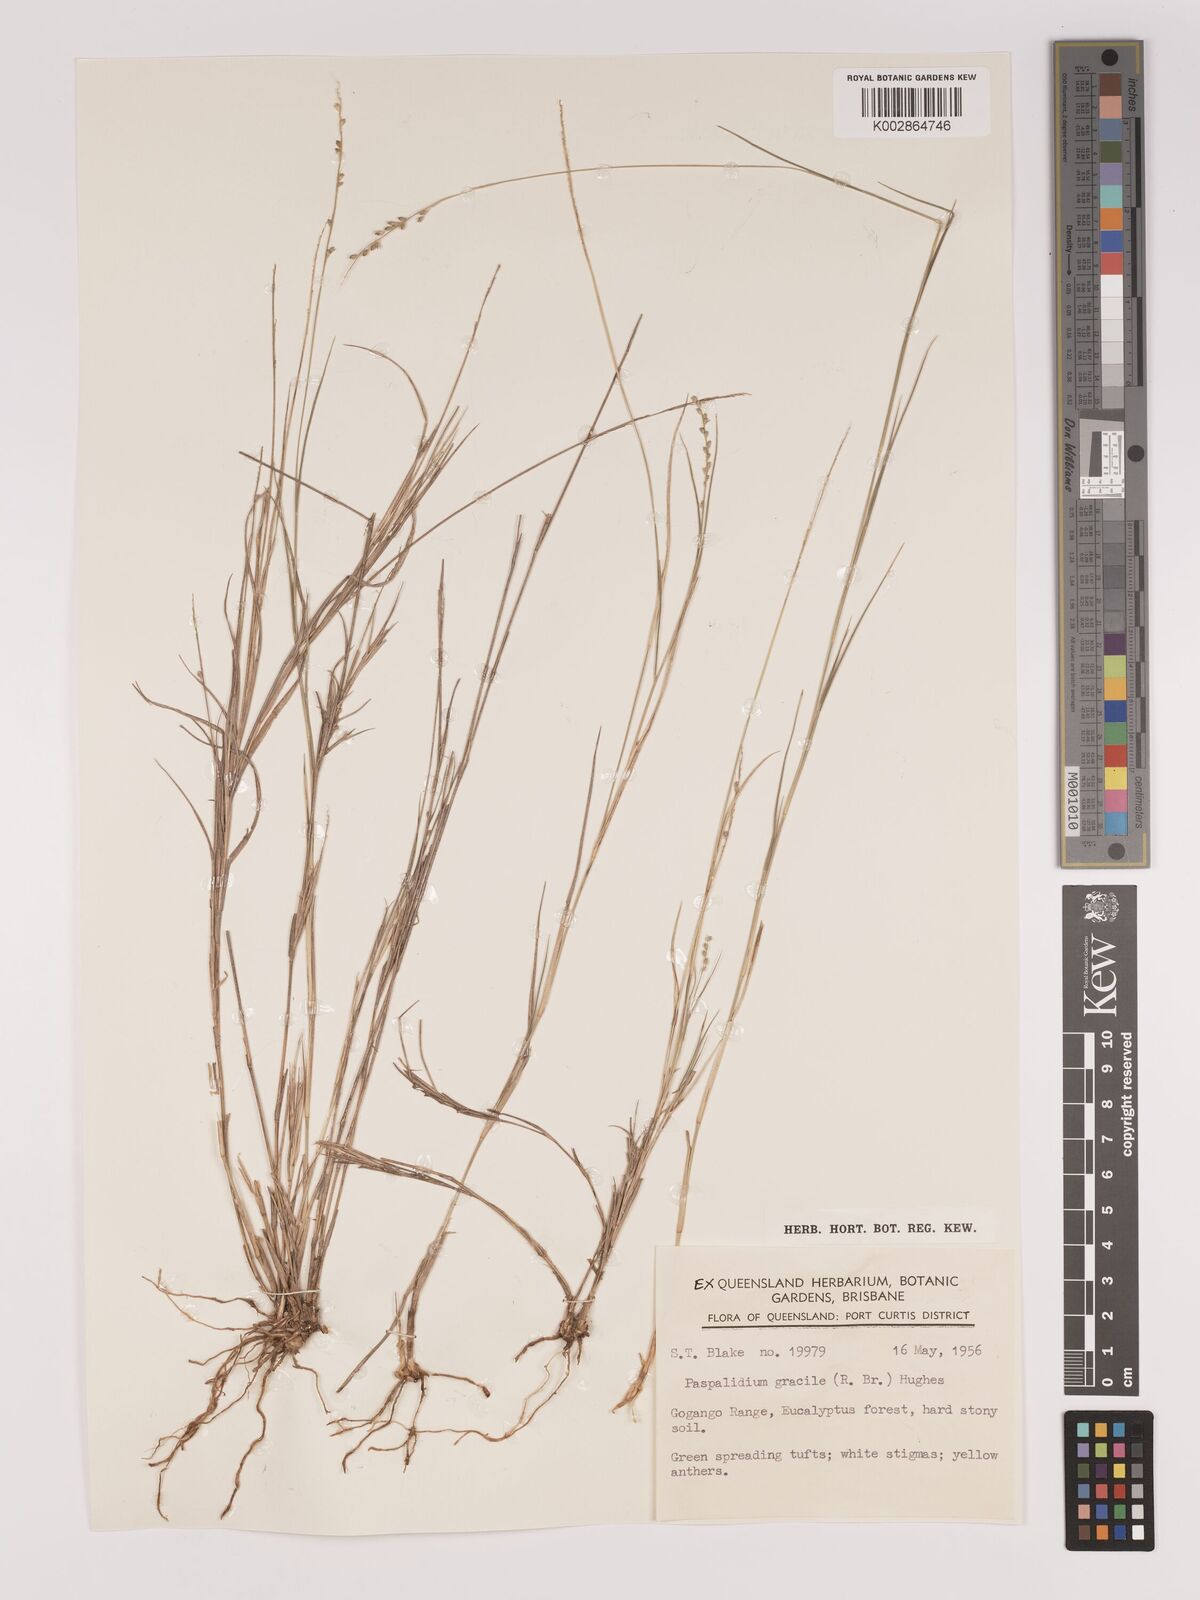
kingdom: Plantae
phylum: Tracheophyta
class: Liliopsida
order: Poales
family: Poaceae
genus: Setaria
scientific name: Setaria brownii
